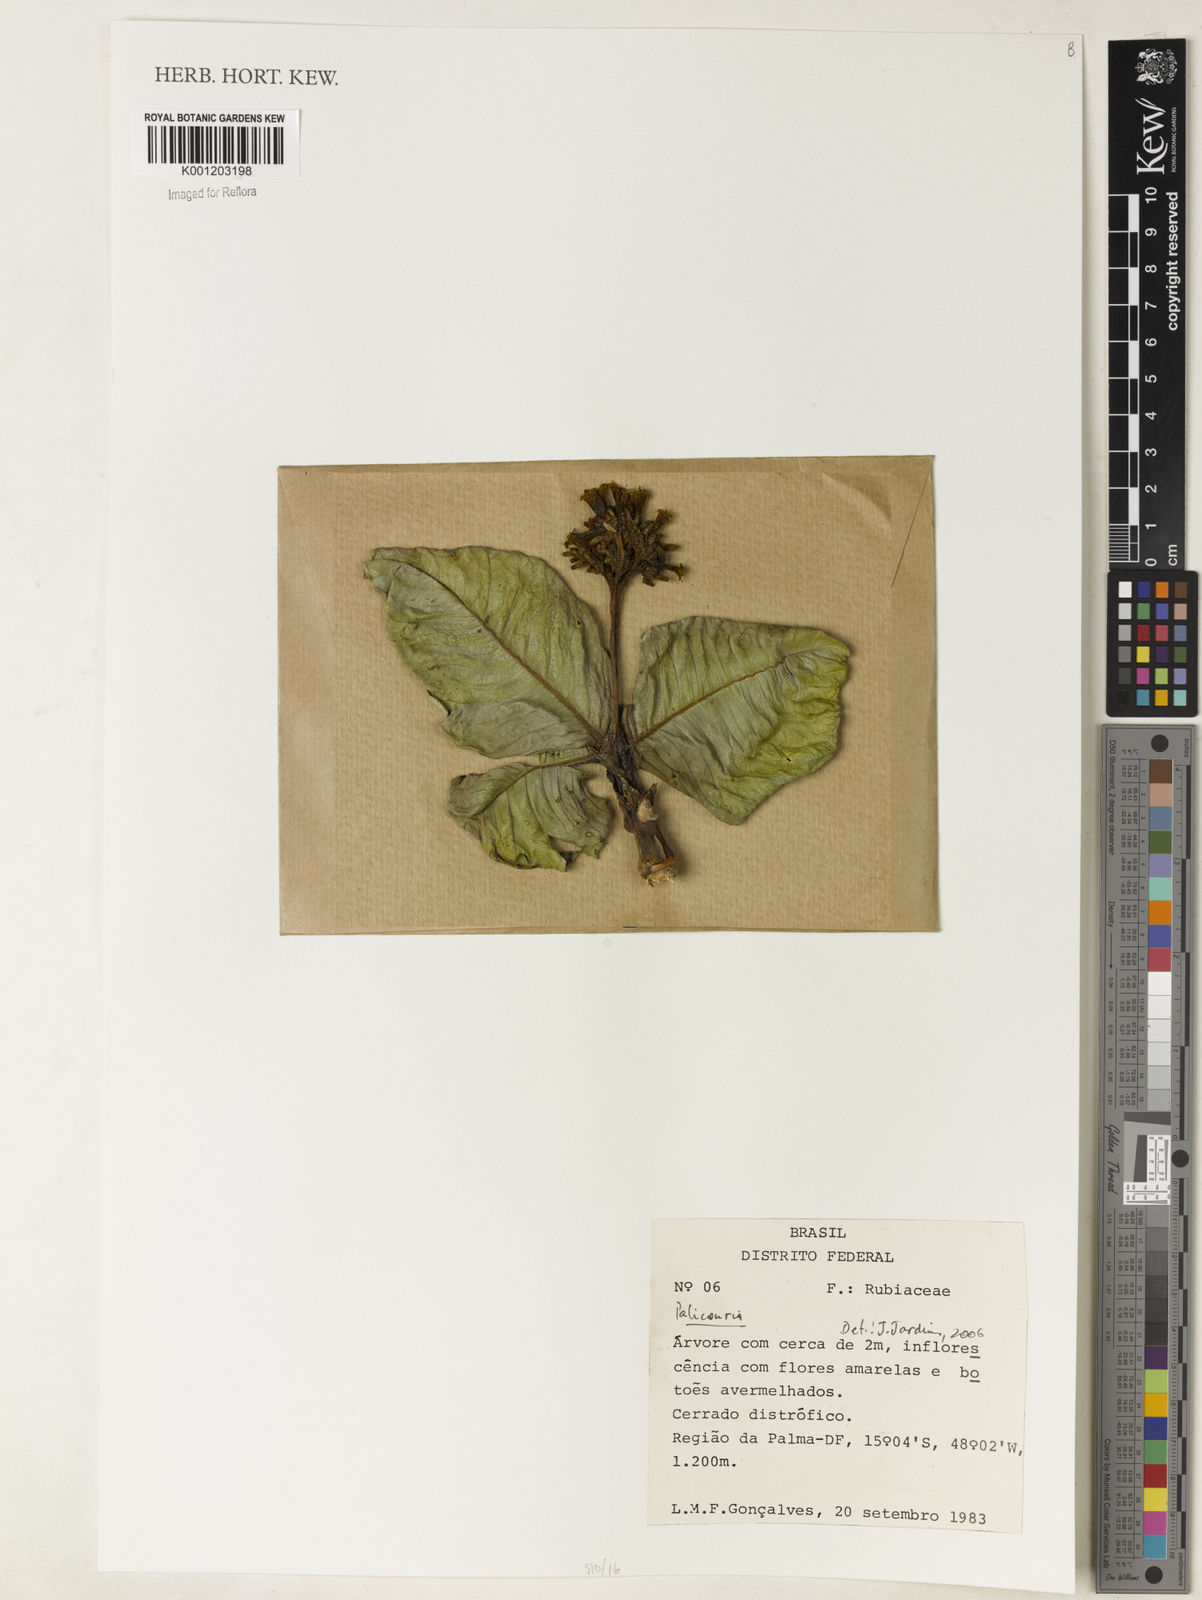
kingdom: Plantae
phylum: Tracheophyta
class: Magnoliopsida
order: Gentianales
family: Rubiaceae
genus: Palicourea
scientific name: Palicourea
